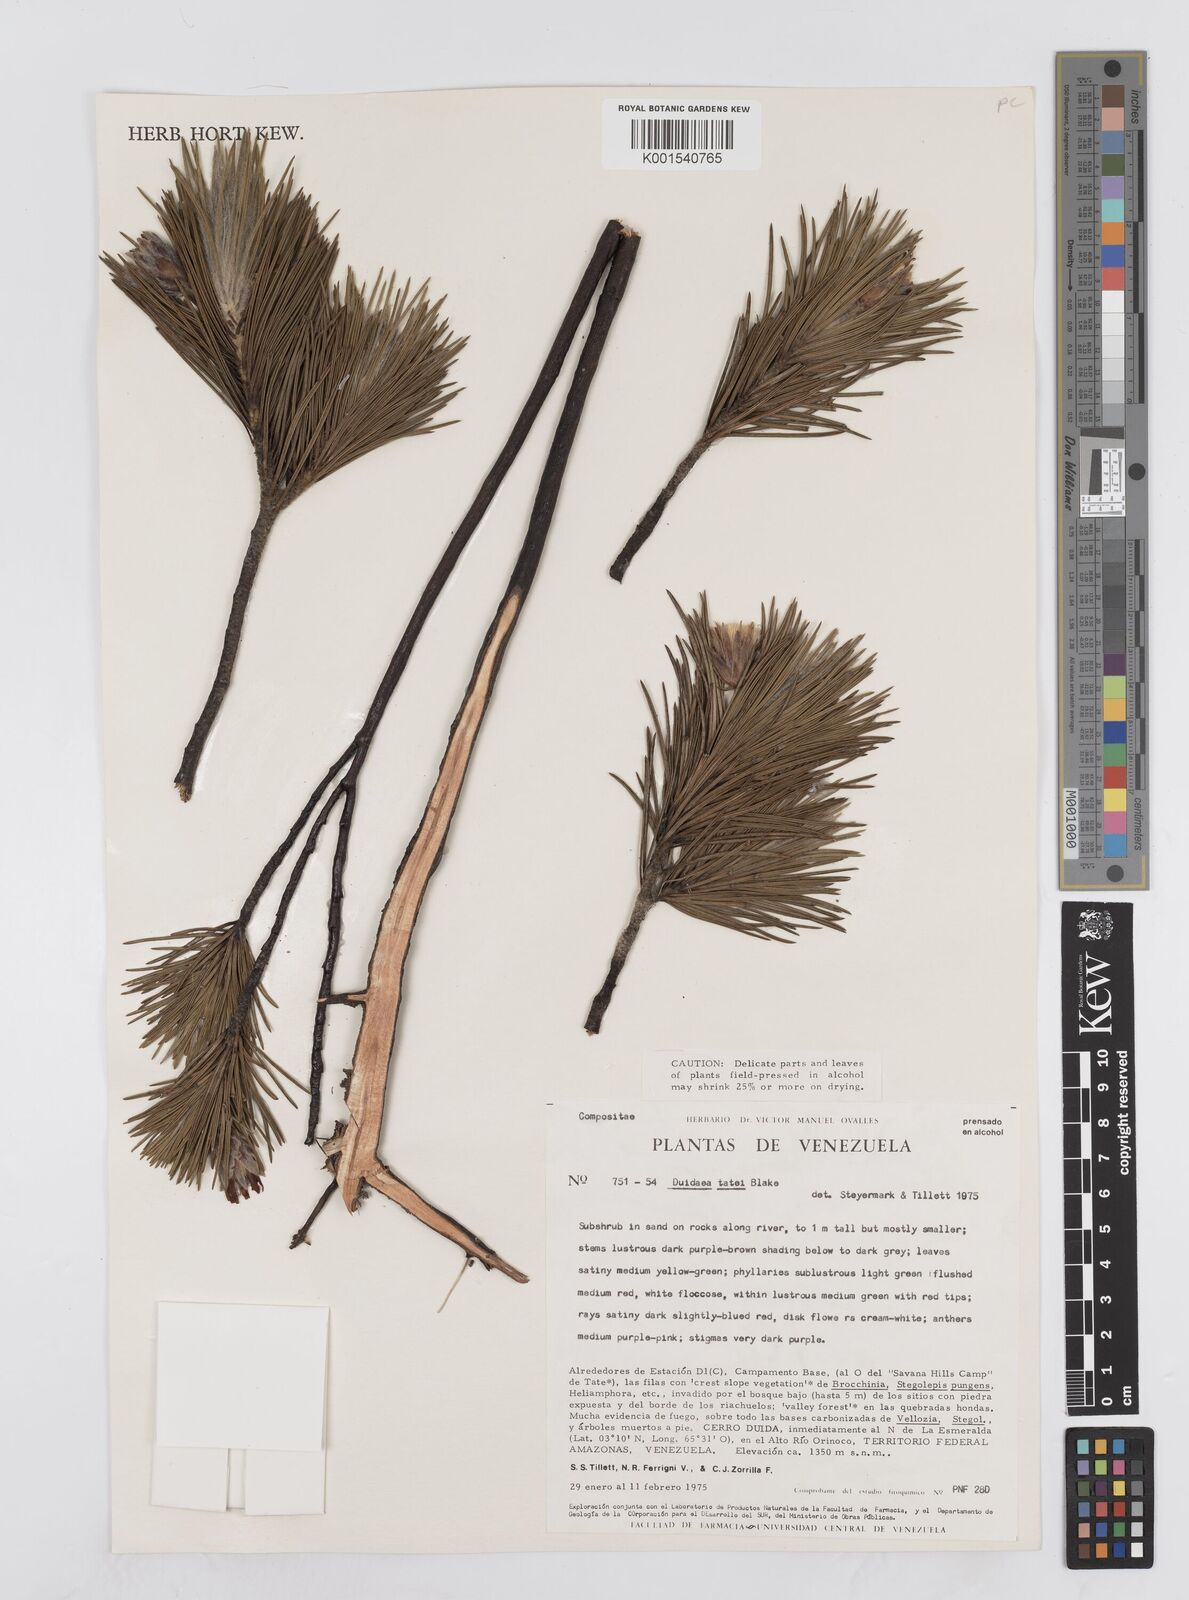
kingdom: Plantae
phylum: Tracheophyta
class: Magnoliopsida
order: Asterales
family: Asteraceae
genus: Duidaea
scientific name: Duidaea tatei
